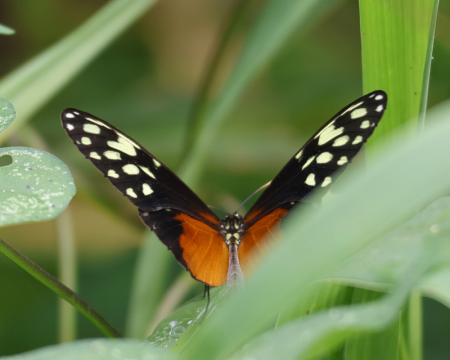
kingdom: Animalia
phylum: Arthropoda
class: Insecta
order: Lepidoptera
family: Nymphalidae
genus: Callithomia
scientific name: Callithomia hezia
